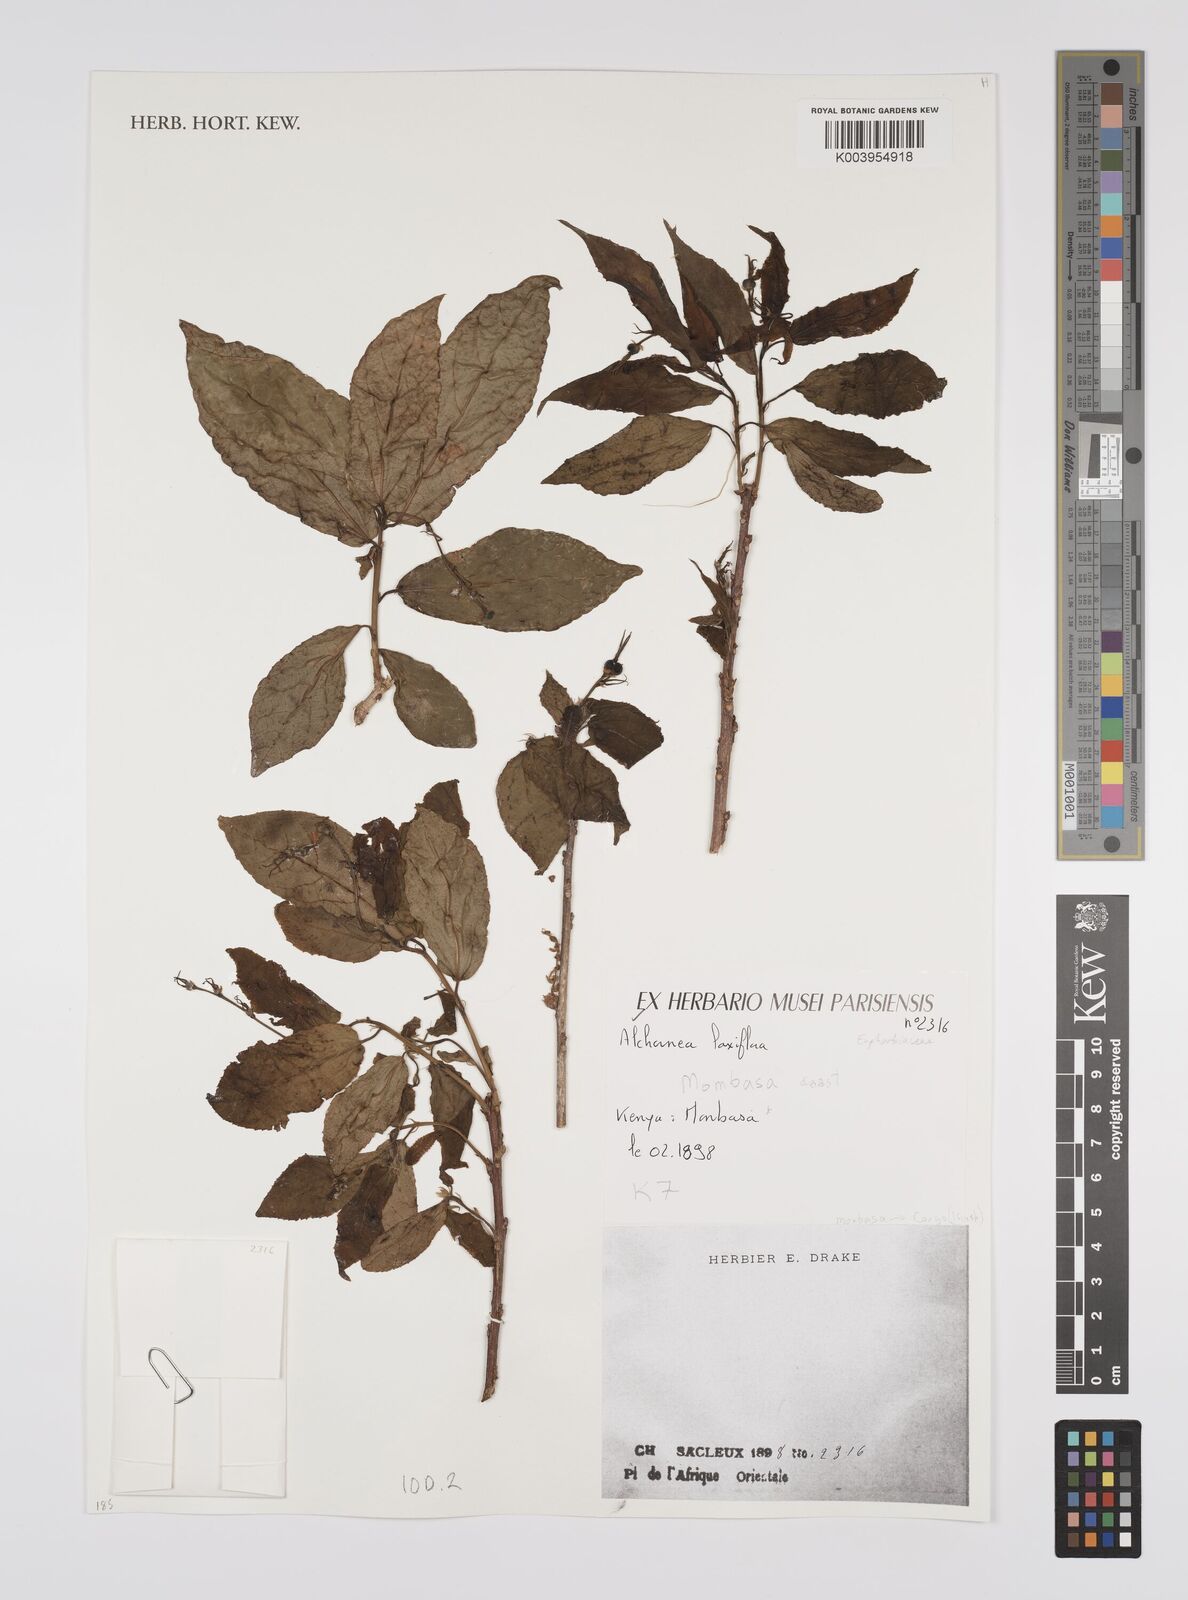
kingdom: Plantae
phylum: Tracheophyta
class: Magnoliopsida
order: Malpighiales
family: Euphorbiaceae
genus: Alchornea
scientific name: Alchornea laxiflora
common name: Lowveld bead-string
